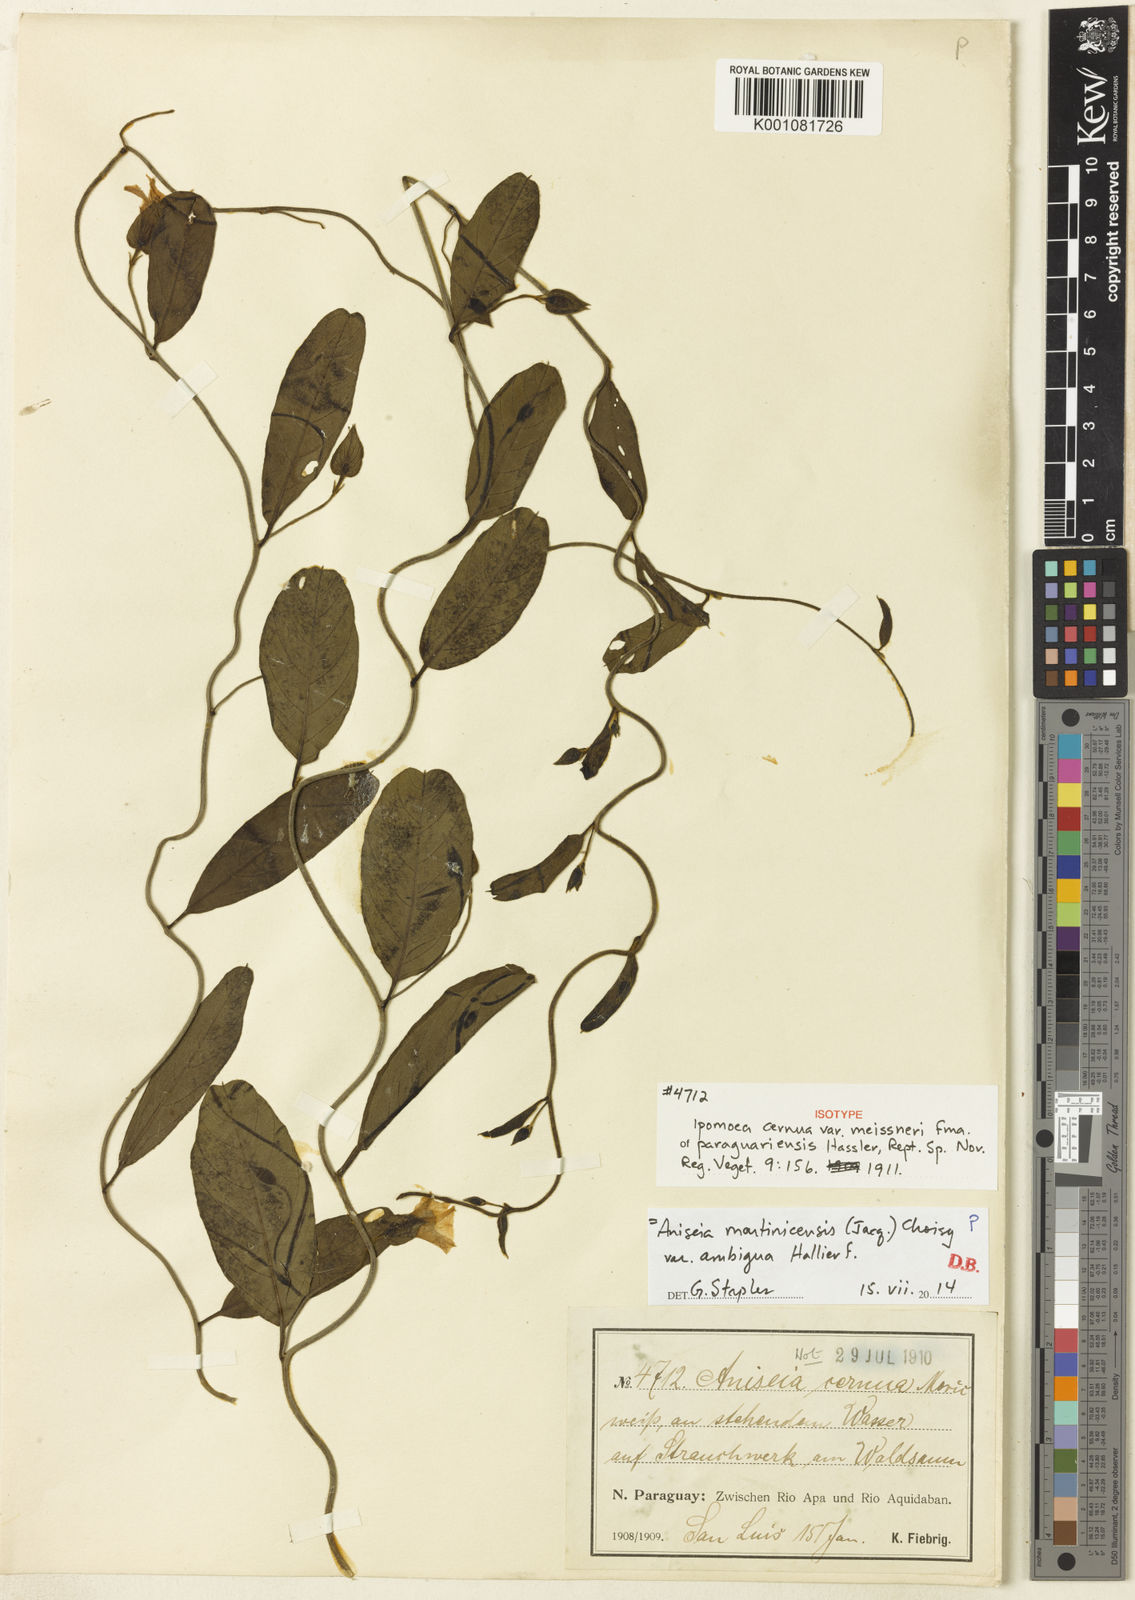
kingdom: Plantae
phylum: Tracheophyta
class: Magnoliopsida
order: Solanales
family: Convolvulaceae
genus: Aniseia
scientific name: Aniseia martinicensis
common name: Kulayadambu
